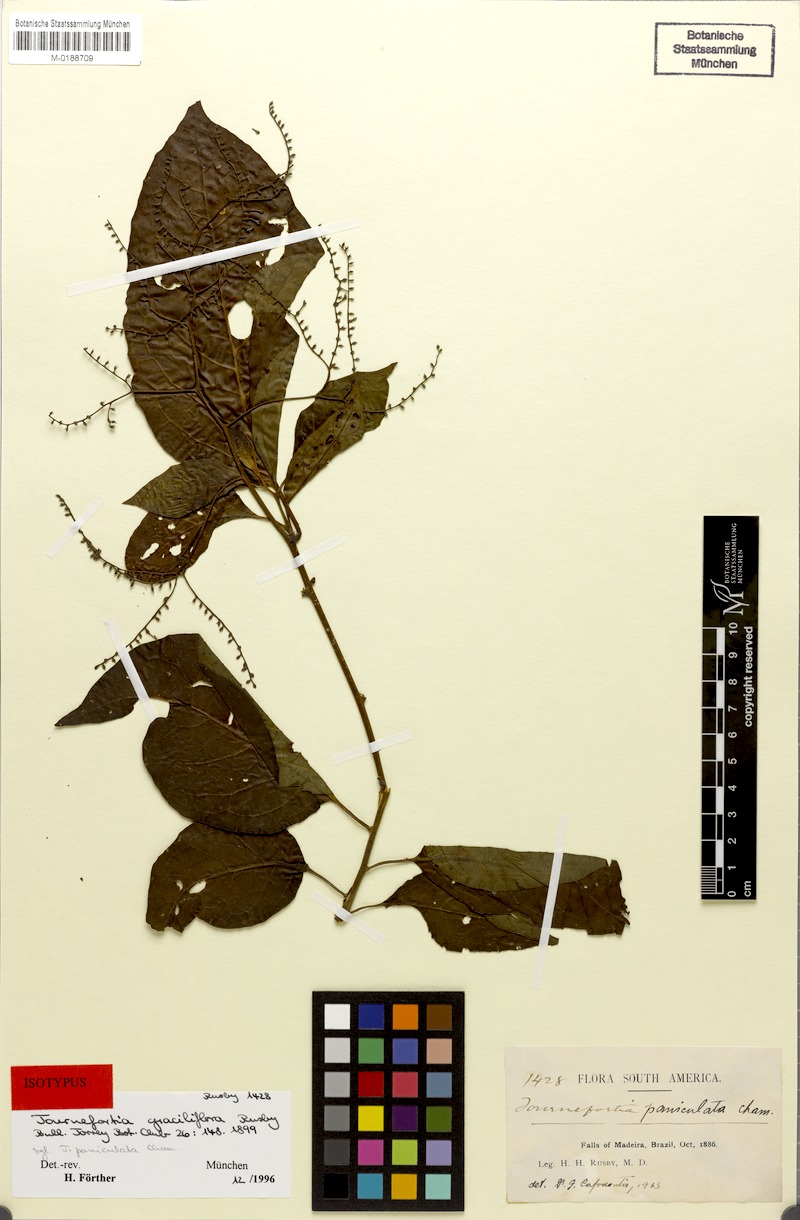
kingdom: Plantae
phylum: Tracheophyta
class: Magnoliopsida
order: Boraginales
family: Heliotropiaceae
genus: Myriopus
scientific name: Myriopus paniculatus
